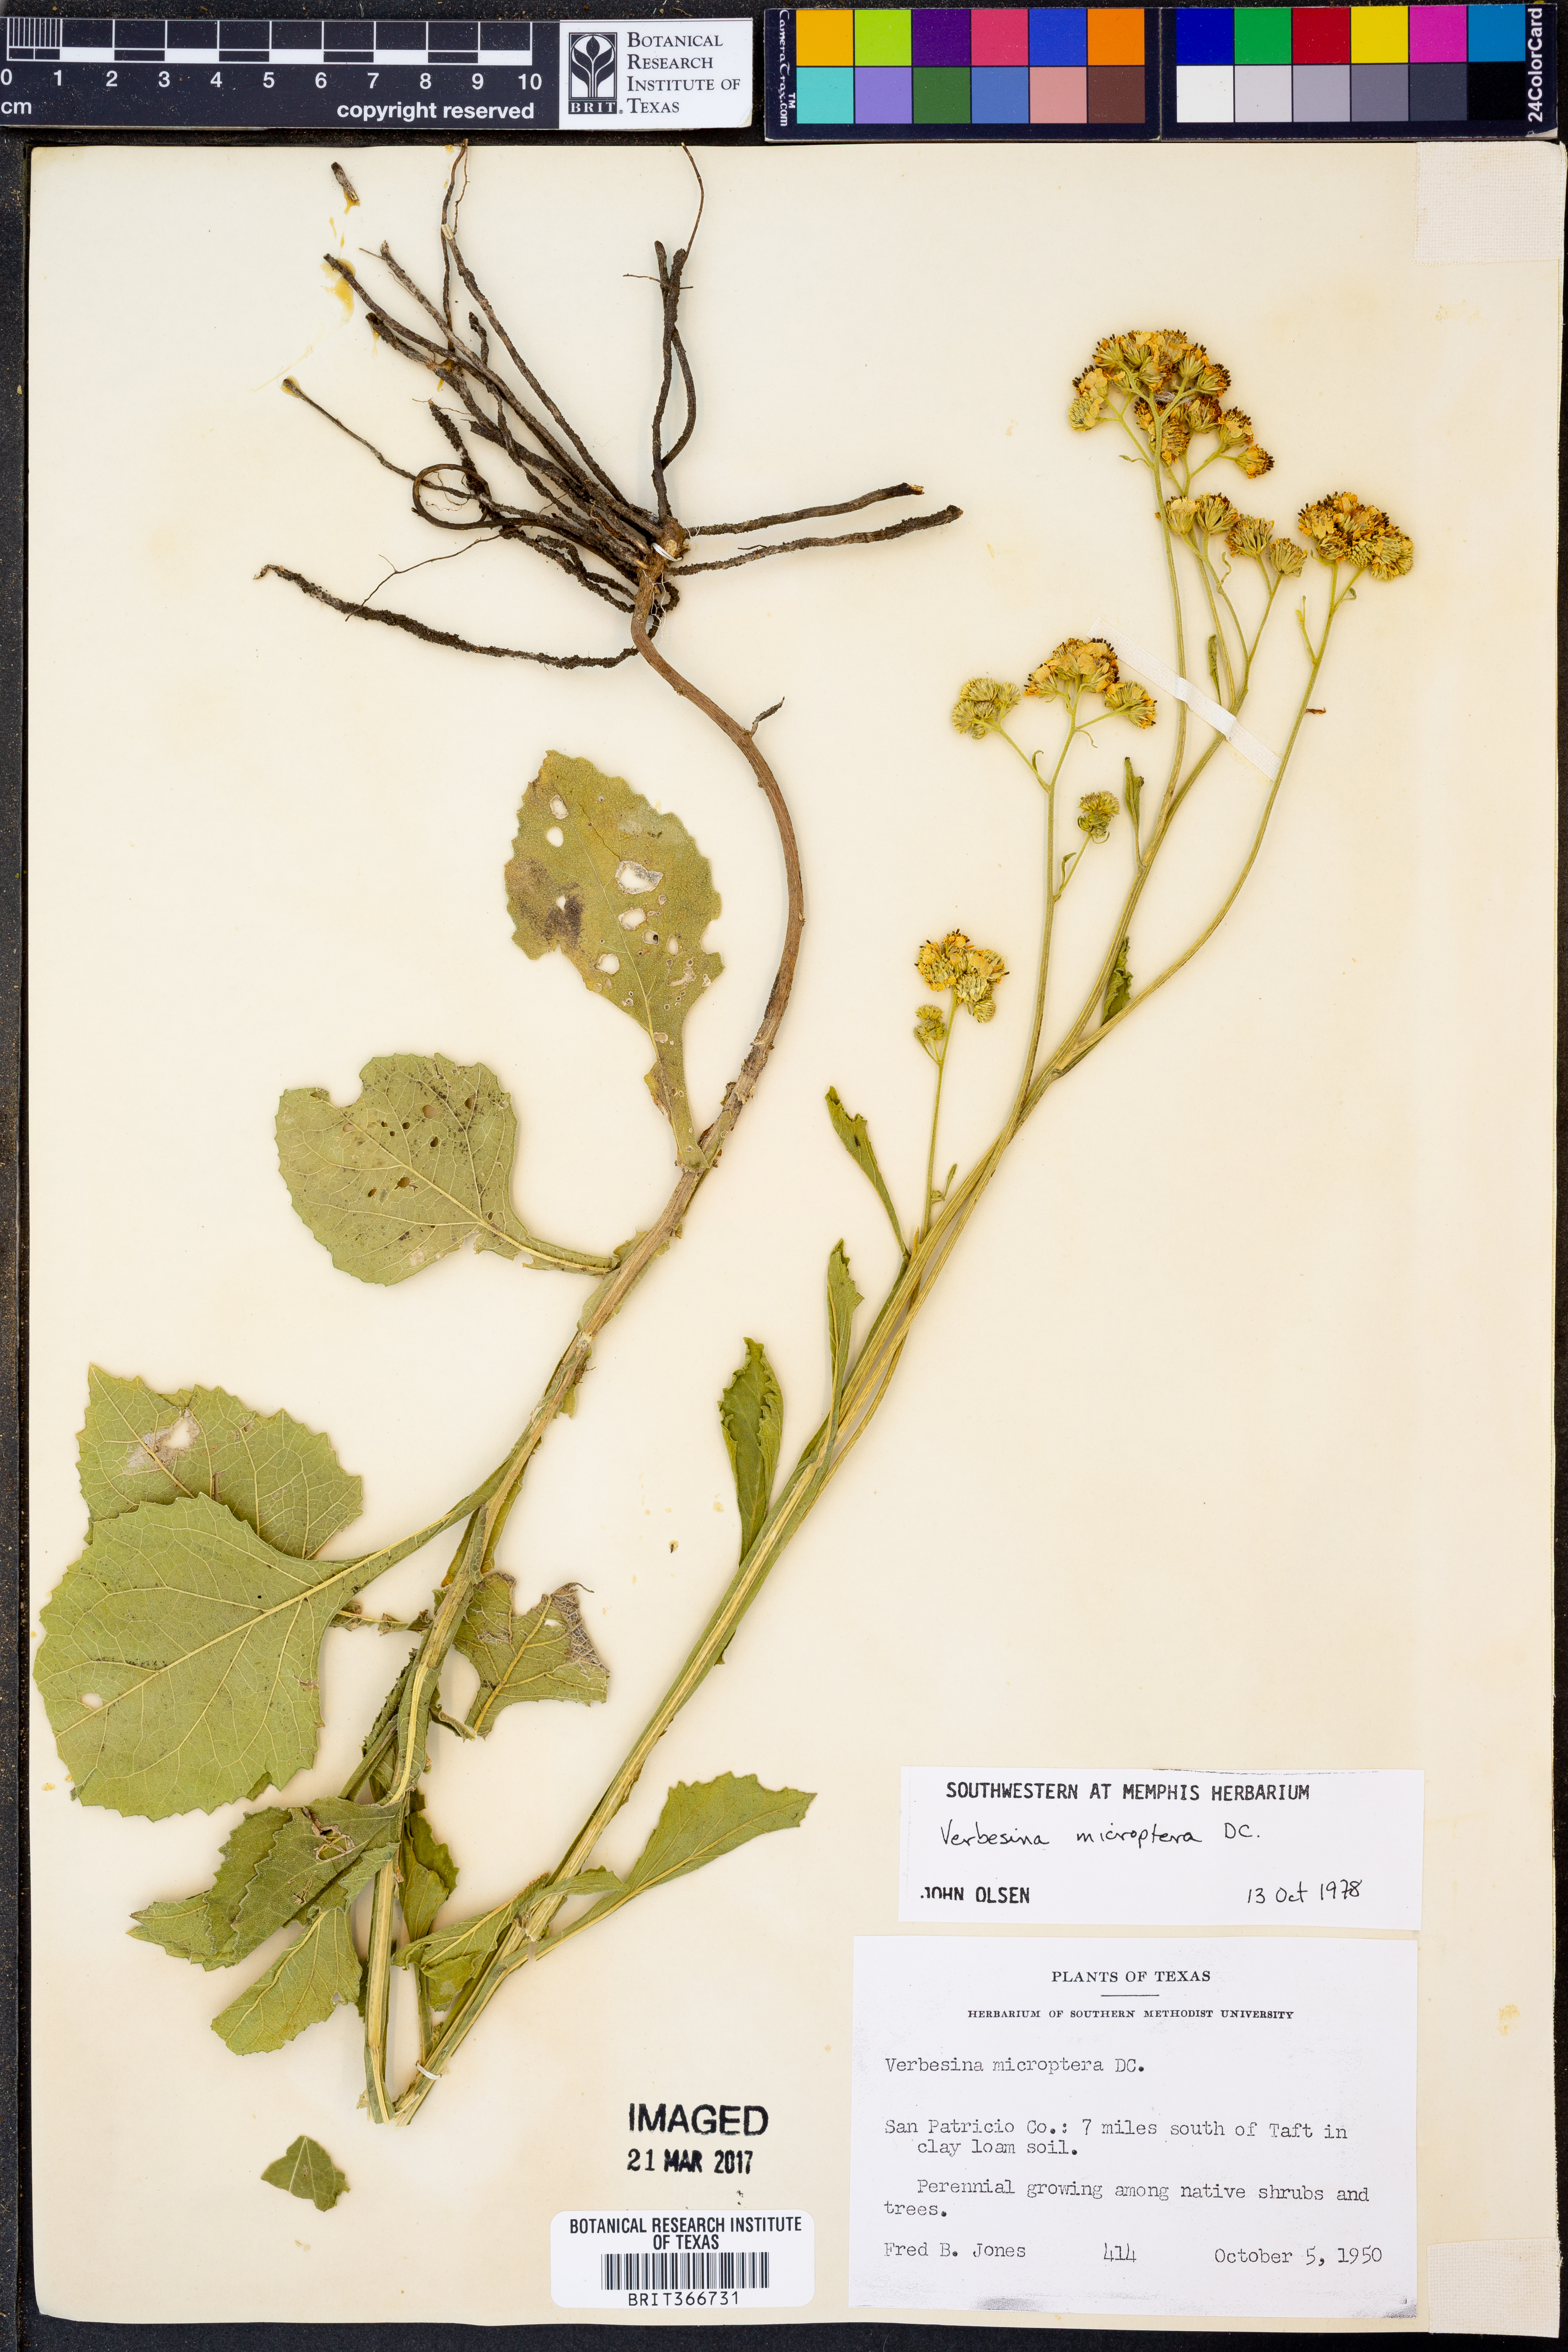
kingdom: Plantae
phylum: Tracheophyta
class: Magnoliopsida
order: Asterales
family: Asteraceae
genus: Verbesina
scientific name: Verbesina encelioides
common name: Golden crownbeard
